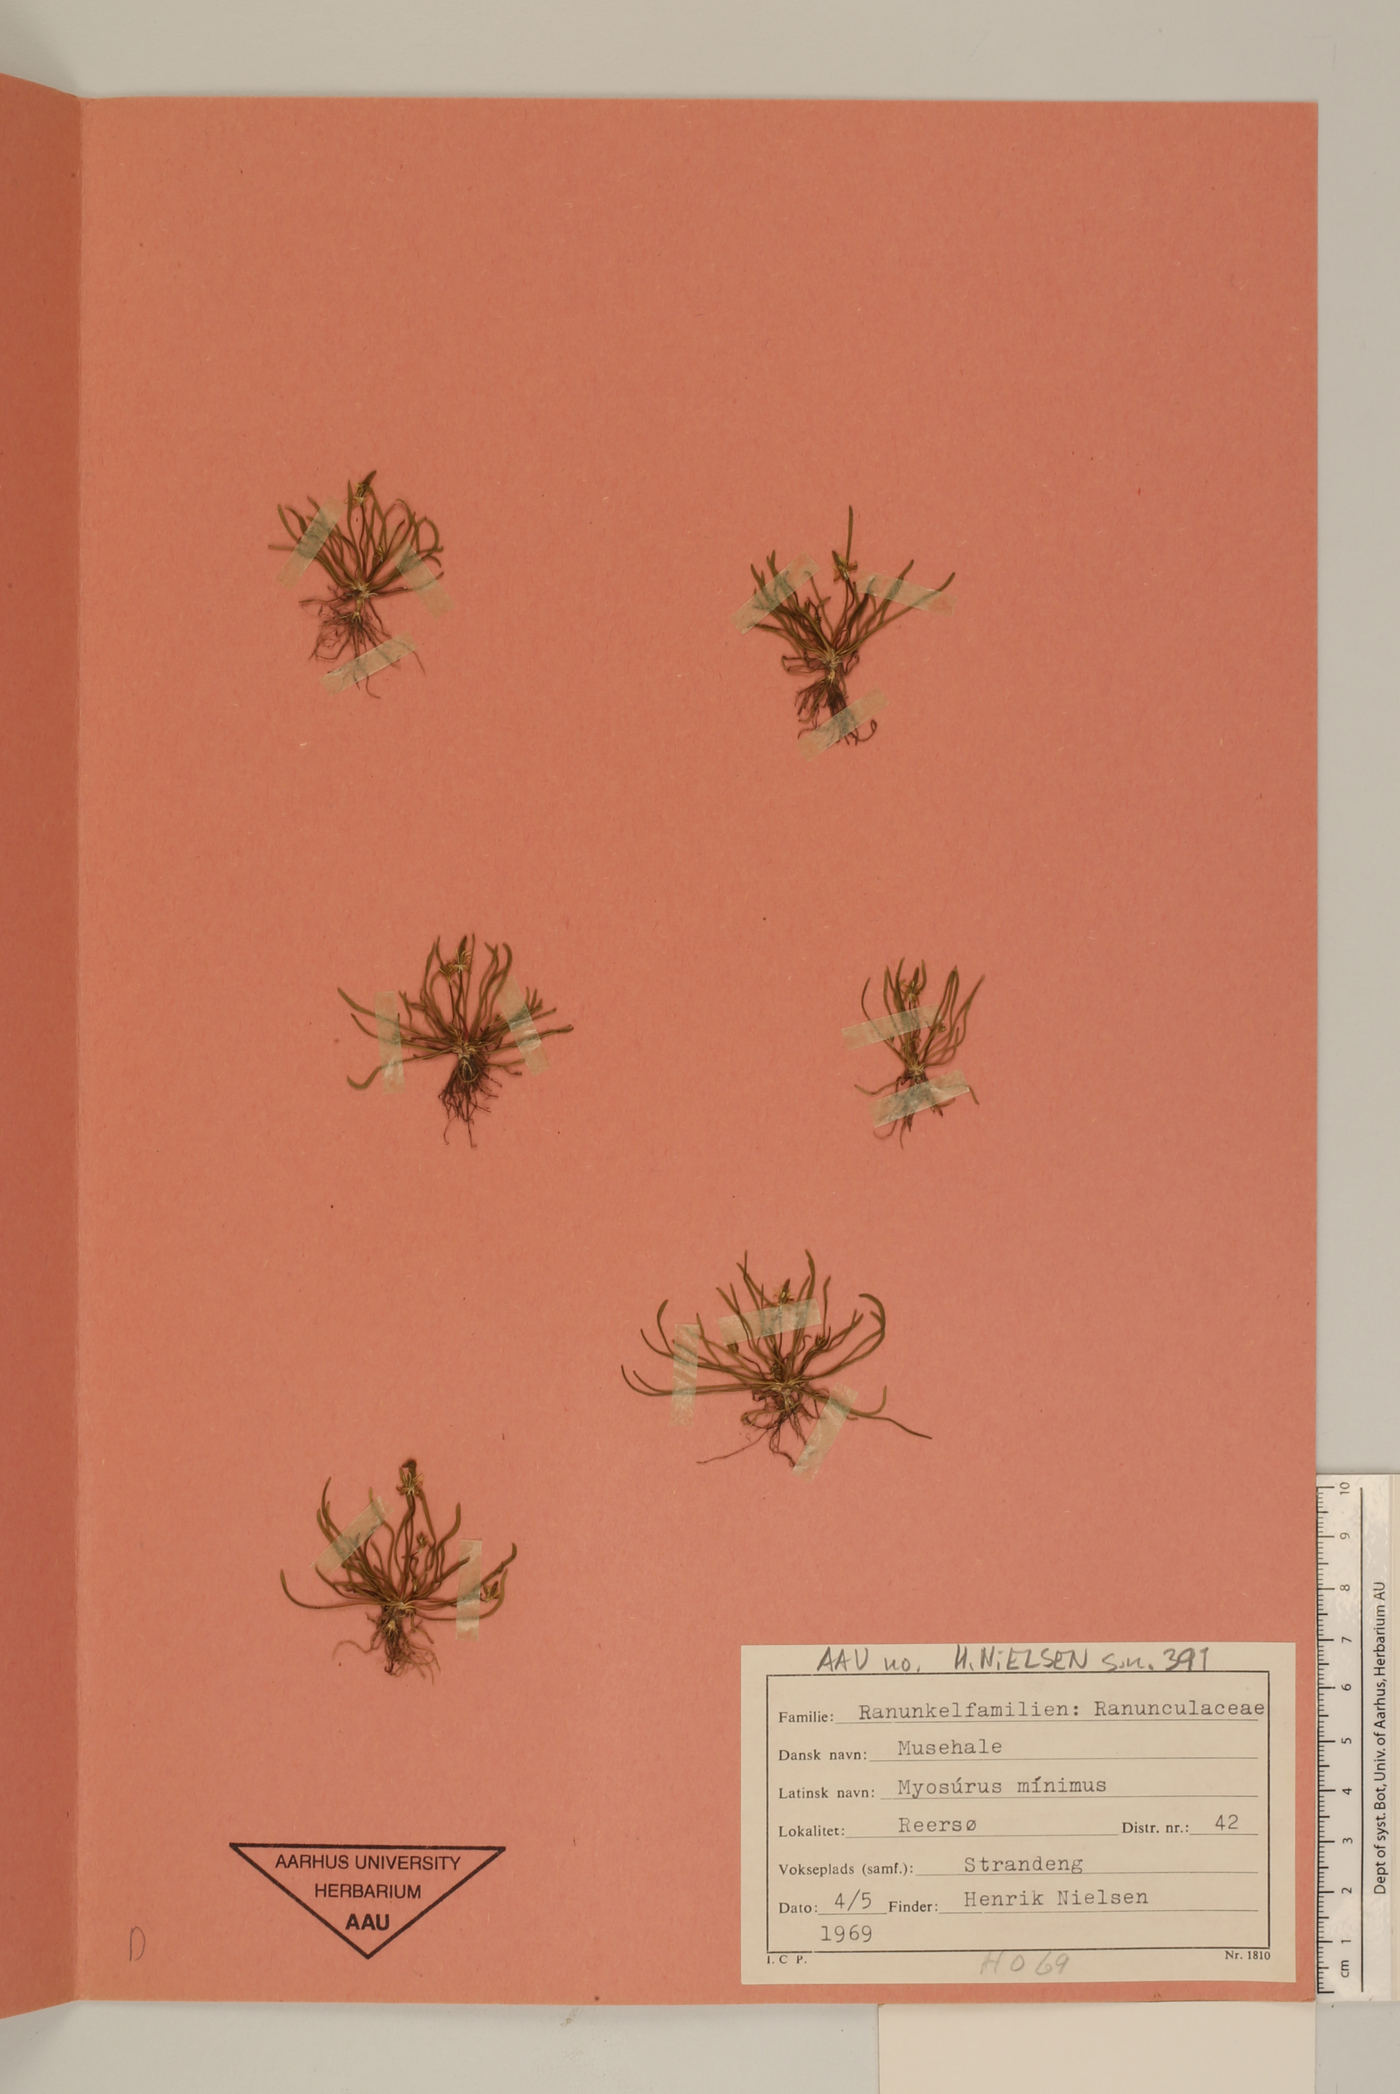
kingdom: Plantae
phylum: Tracheophyta
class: Magnoliopsida
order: Ranunculales
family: Ranunculaceae
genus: Myosurus
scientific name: Myosurus minimus
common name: Mousetail
